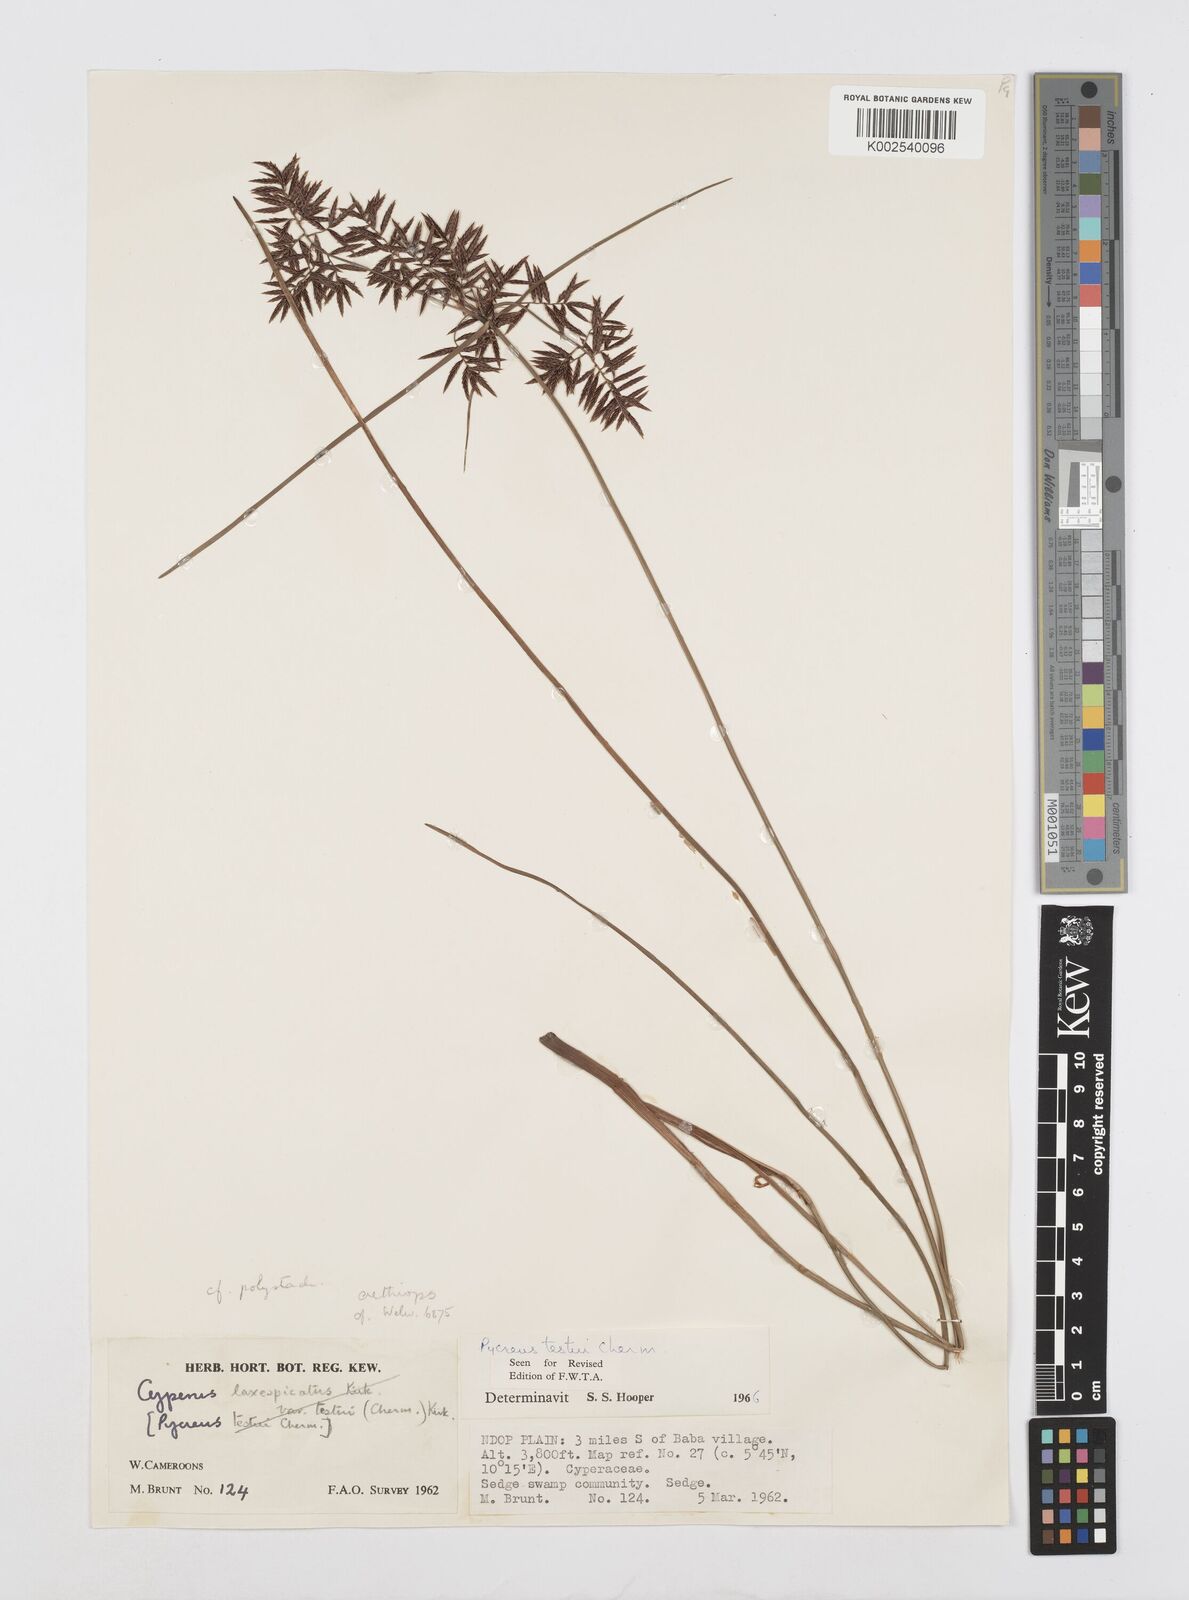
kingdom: Plantae
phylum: Tracheophyta
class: Liliopsida
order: Poales
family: Cyperaceae
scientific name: Cyperaceae
